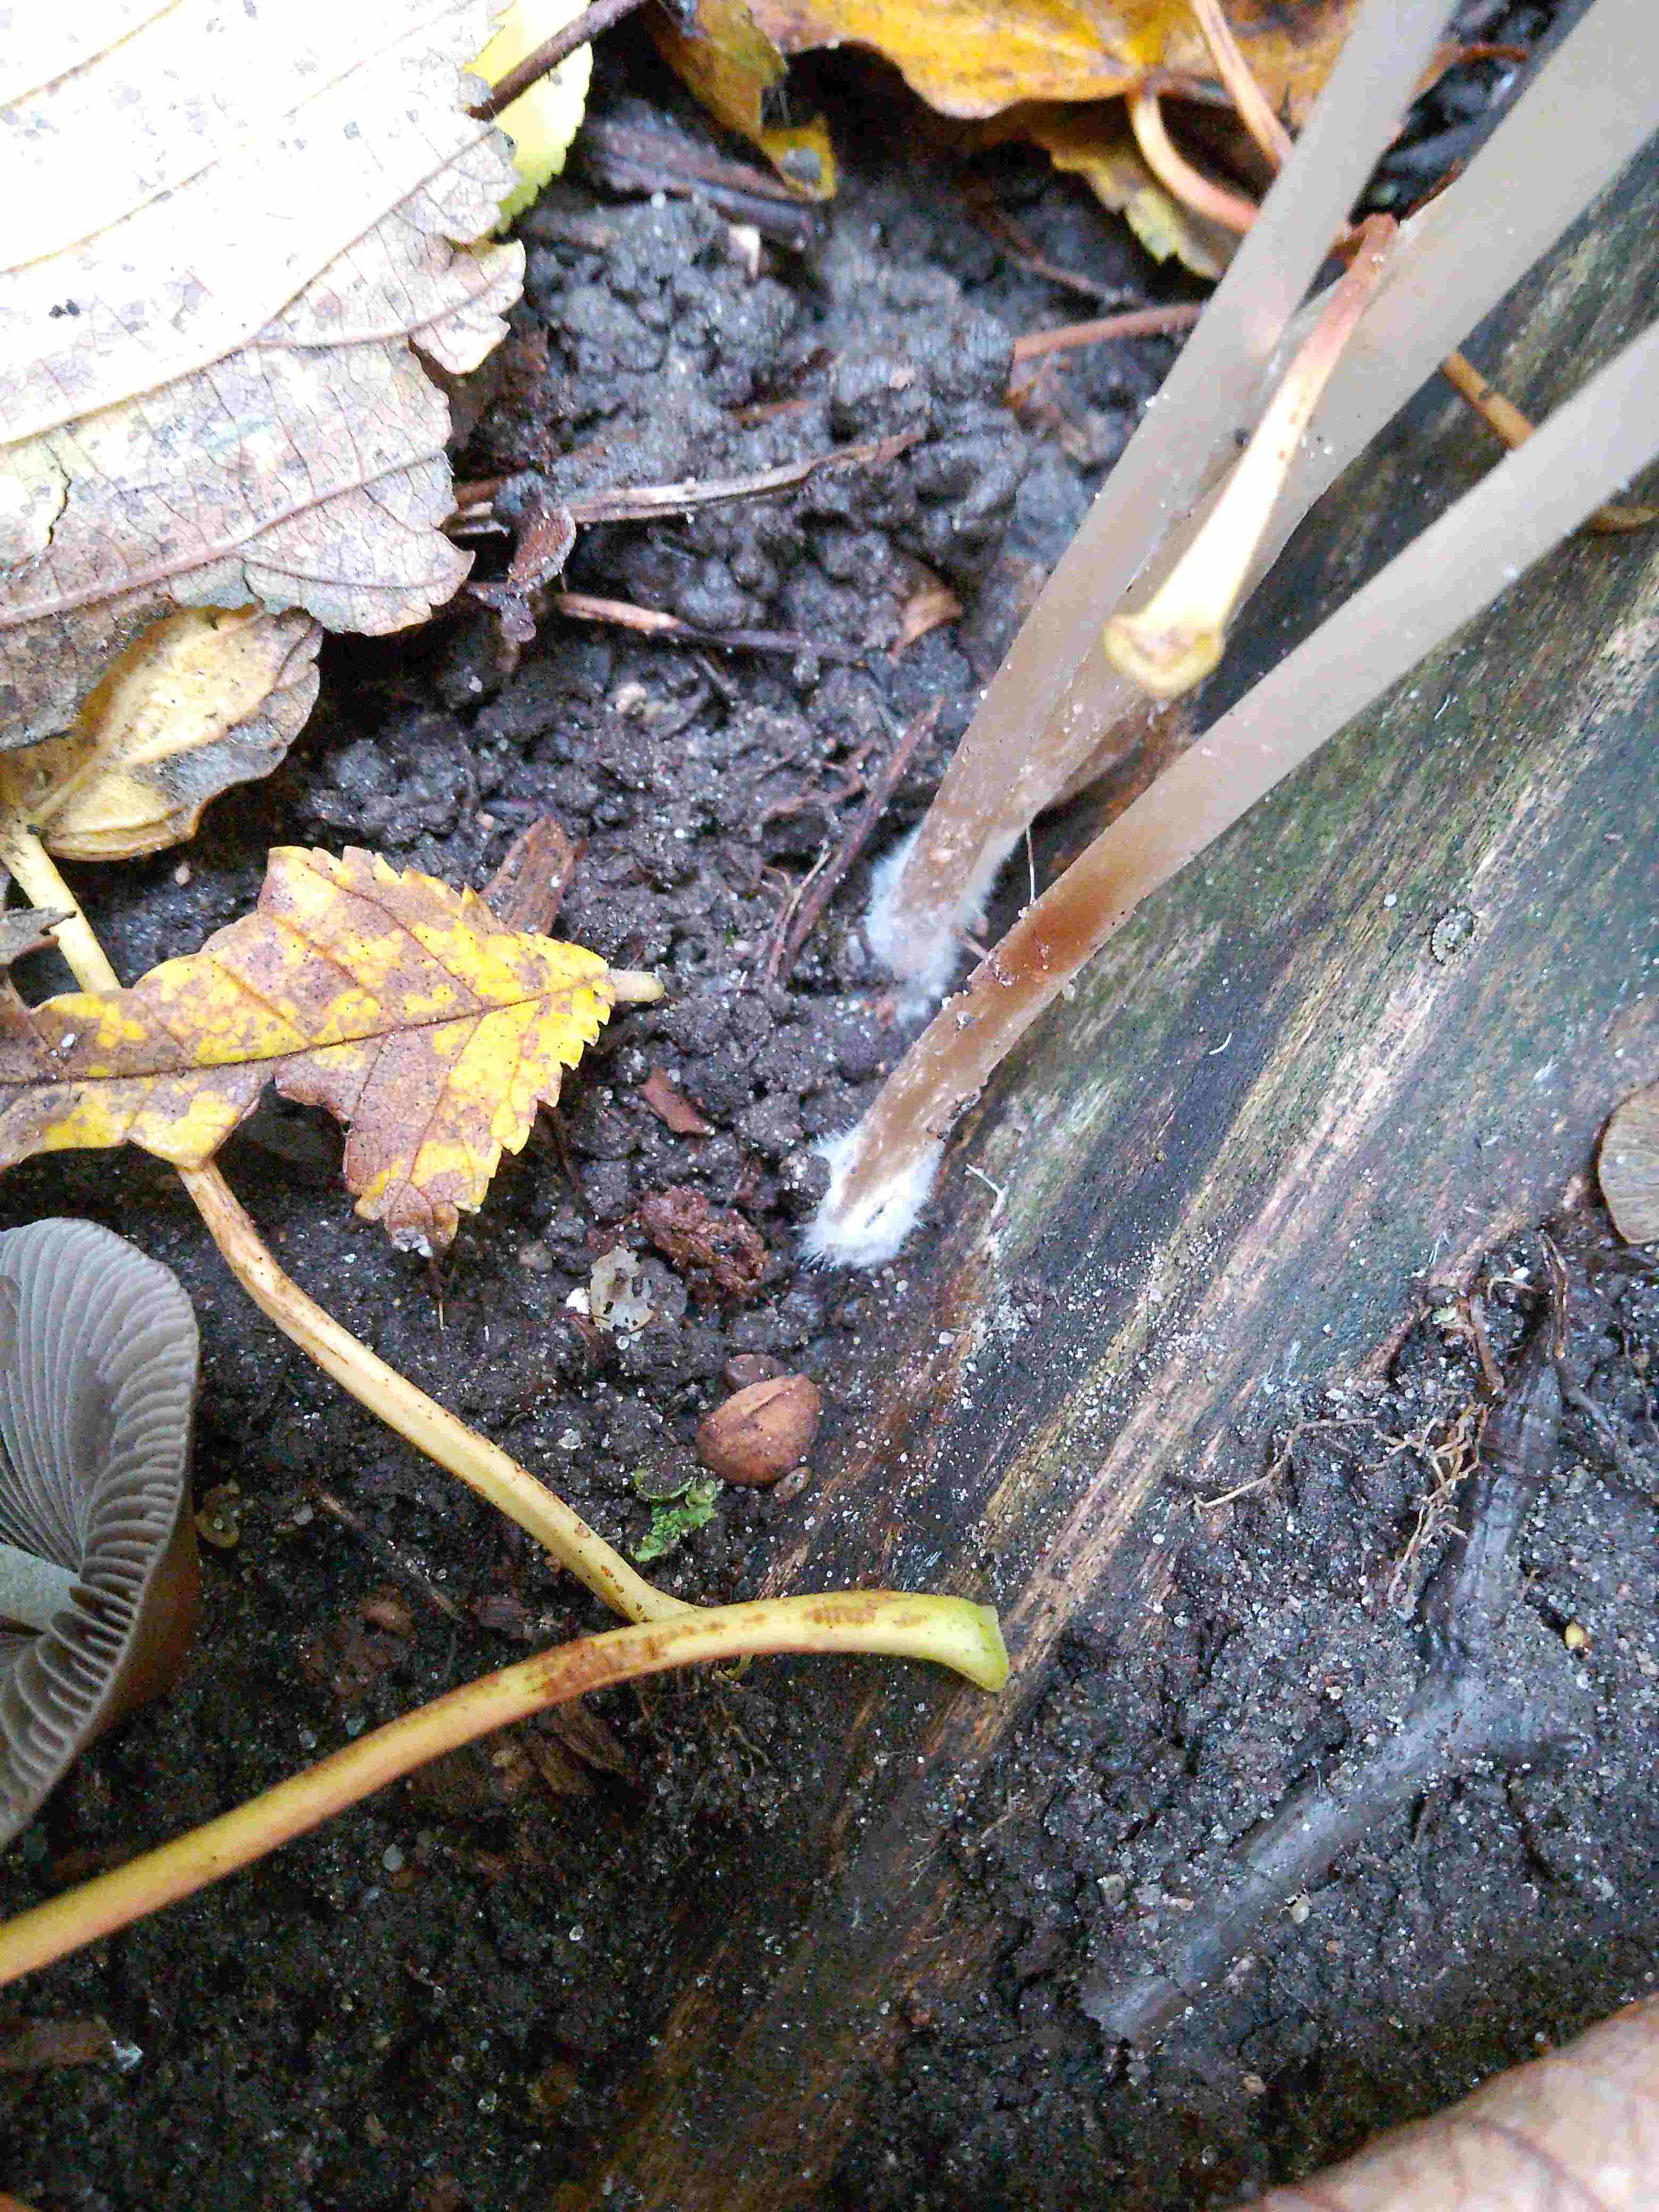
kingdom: Fungi
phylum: Basidiomycota
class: Agaricomycetes
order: Agaricales
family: Psathyrellaceae
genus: Parasola
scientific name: Parasola conopilea
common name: kegle-hjulhat
